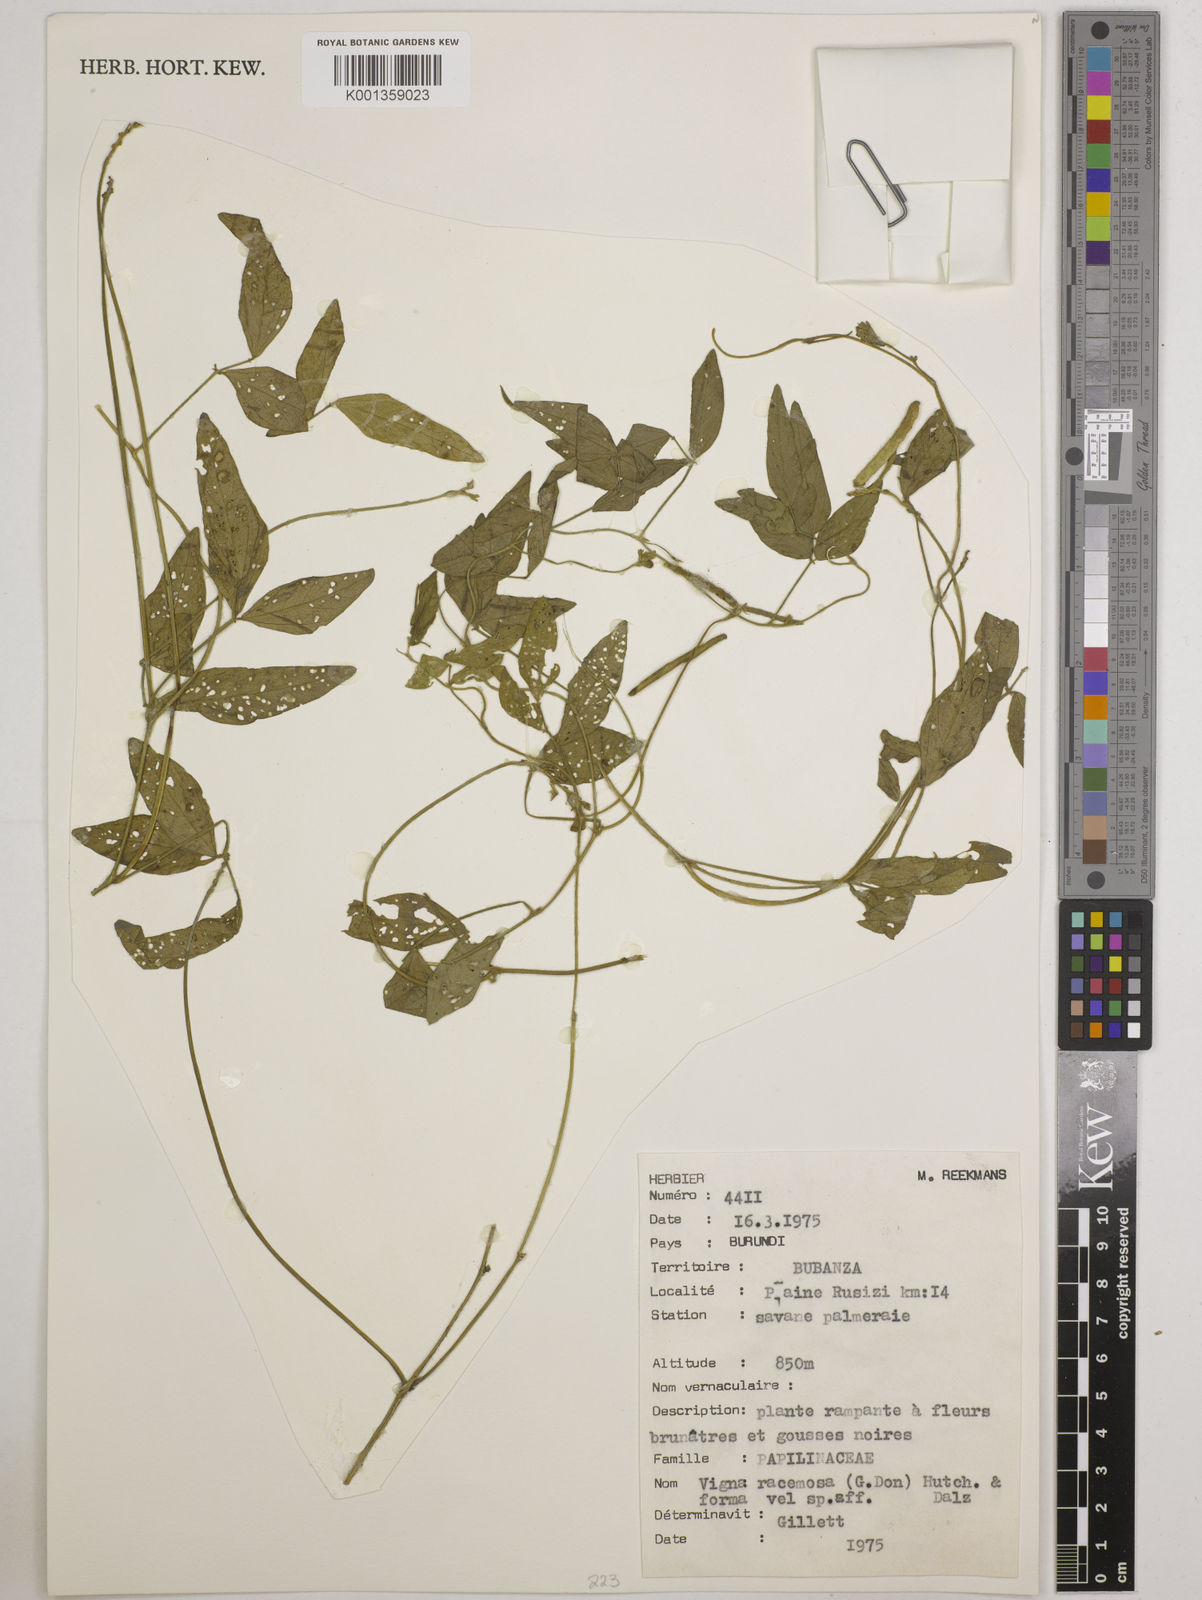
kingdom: Plantae
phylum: Tracheophyta
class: Magnoliopsida
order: Fabales
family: Fabaceae
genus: Vigna
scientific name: Vigna racemosa
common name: Beans not eaten
